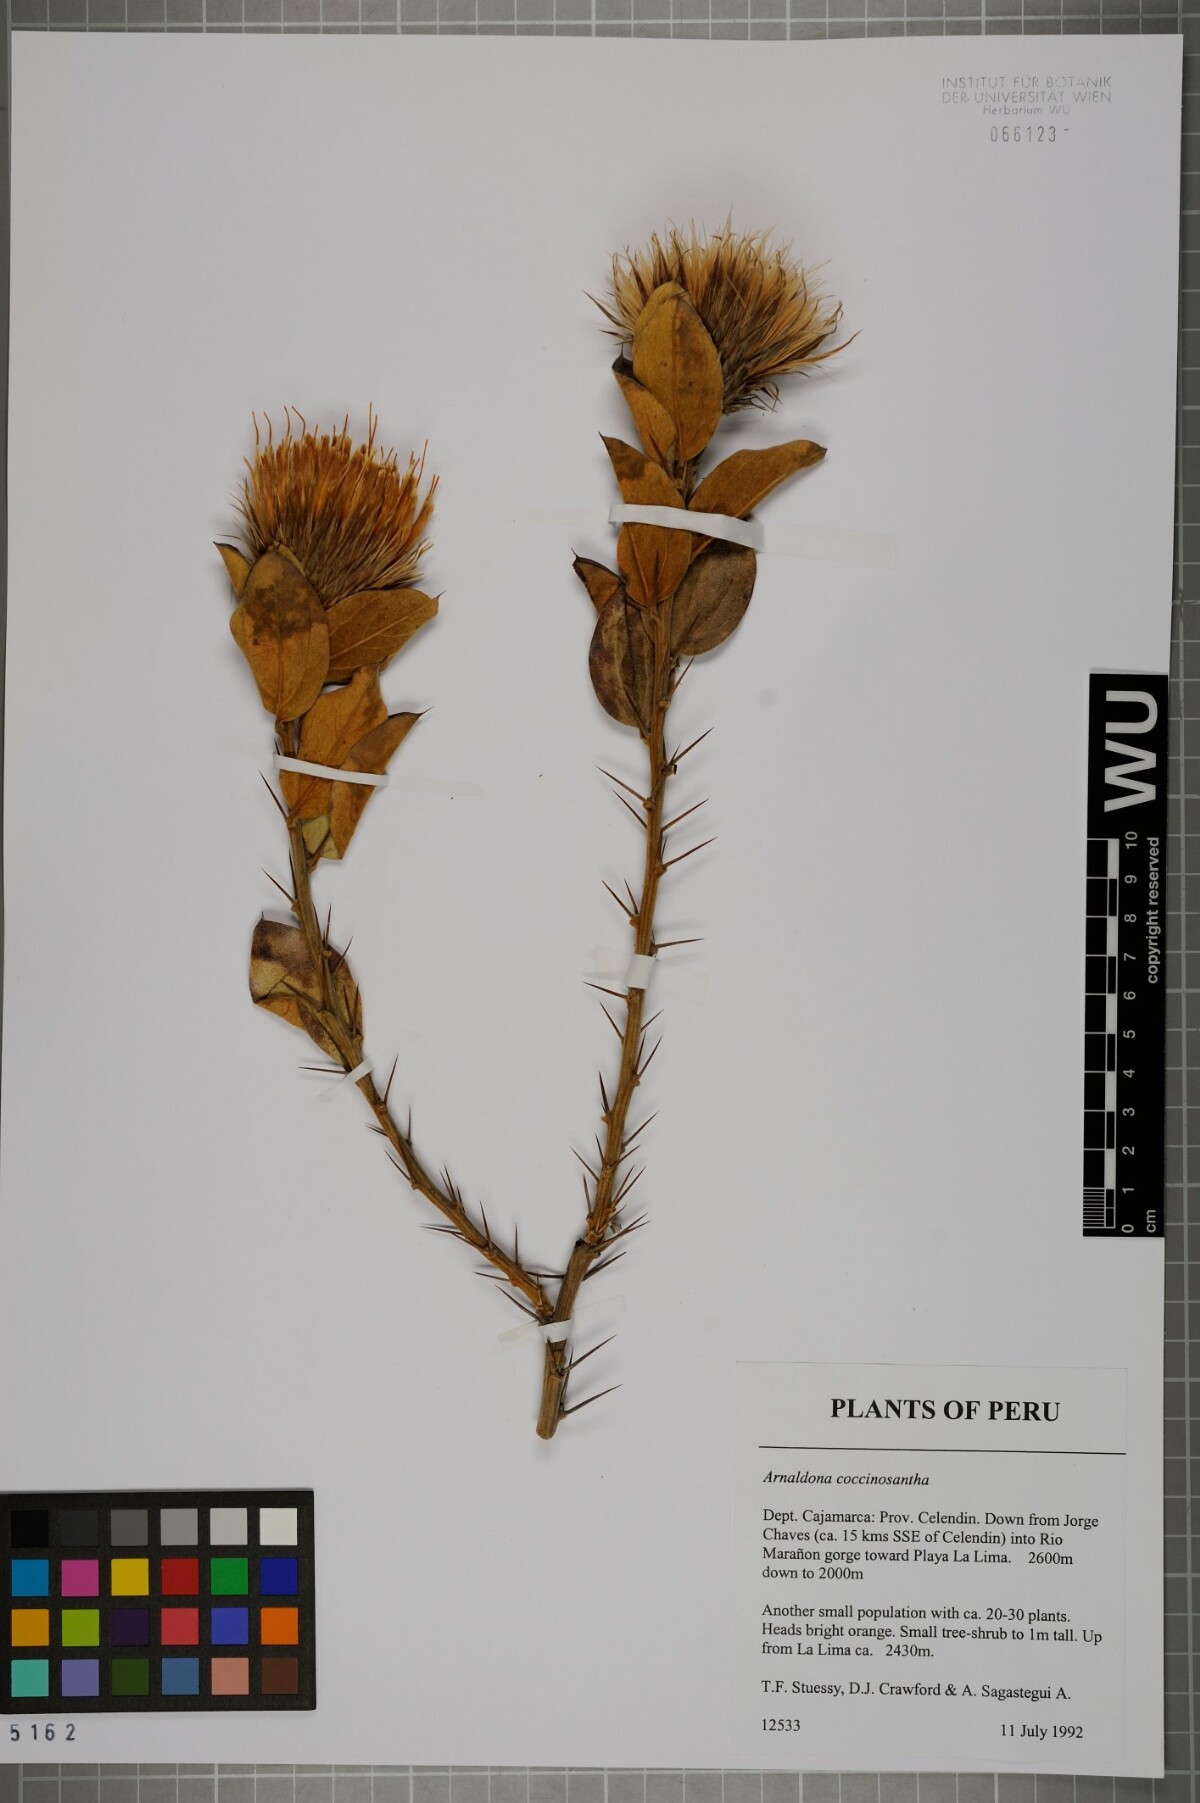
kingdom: Plantae
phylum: Tracheophyta
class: Magnoliopsida
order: Asterales
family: Asteraceae
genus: Arnaldoa
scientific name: Arnaldoa weberbaueri
